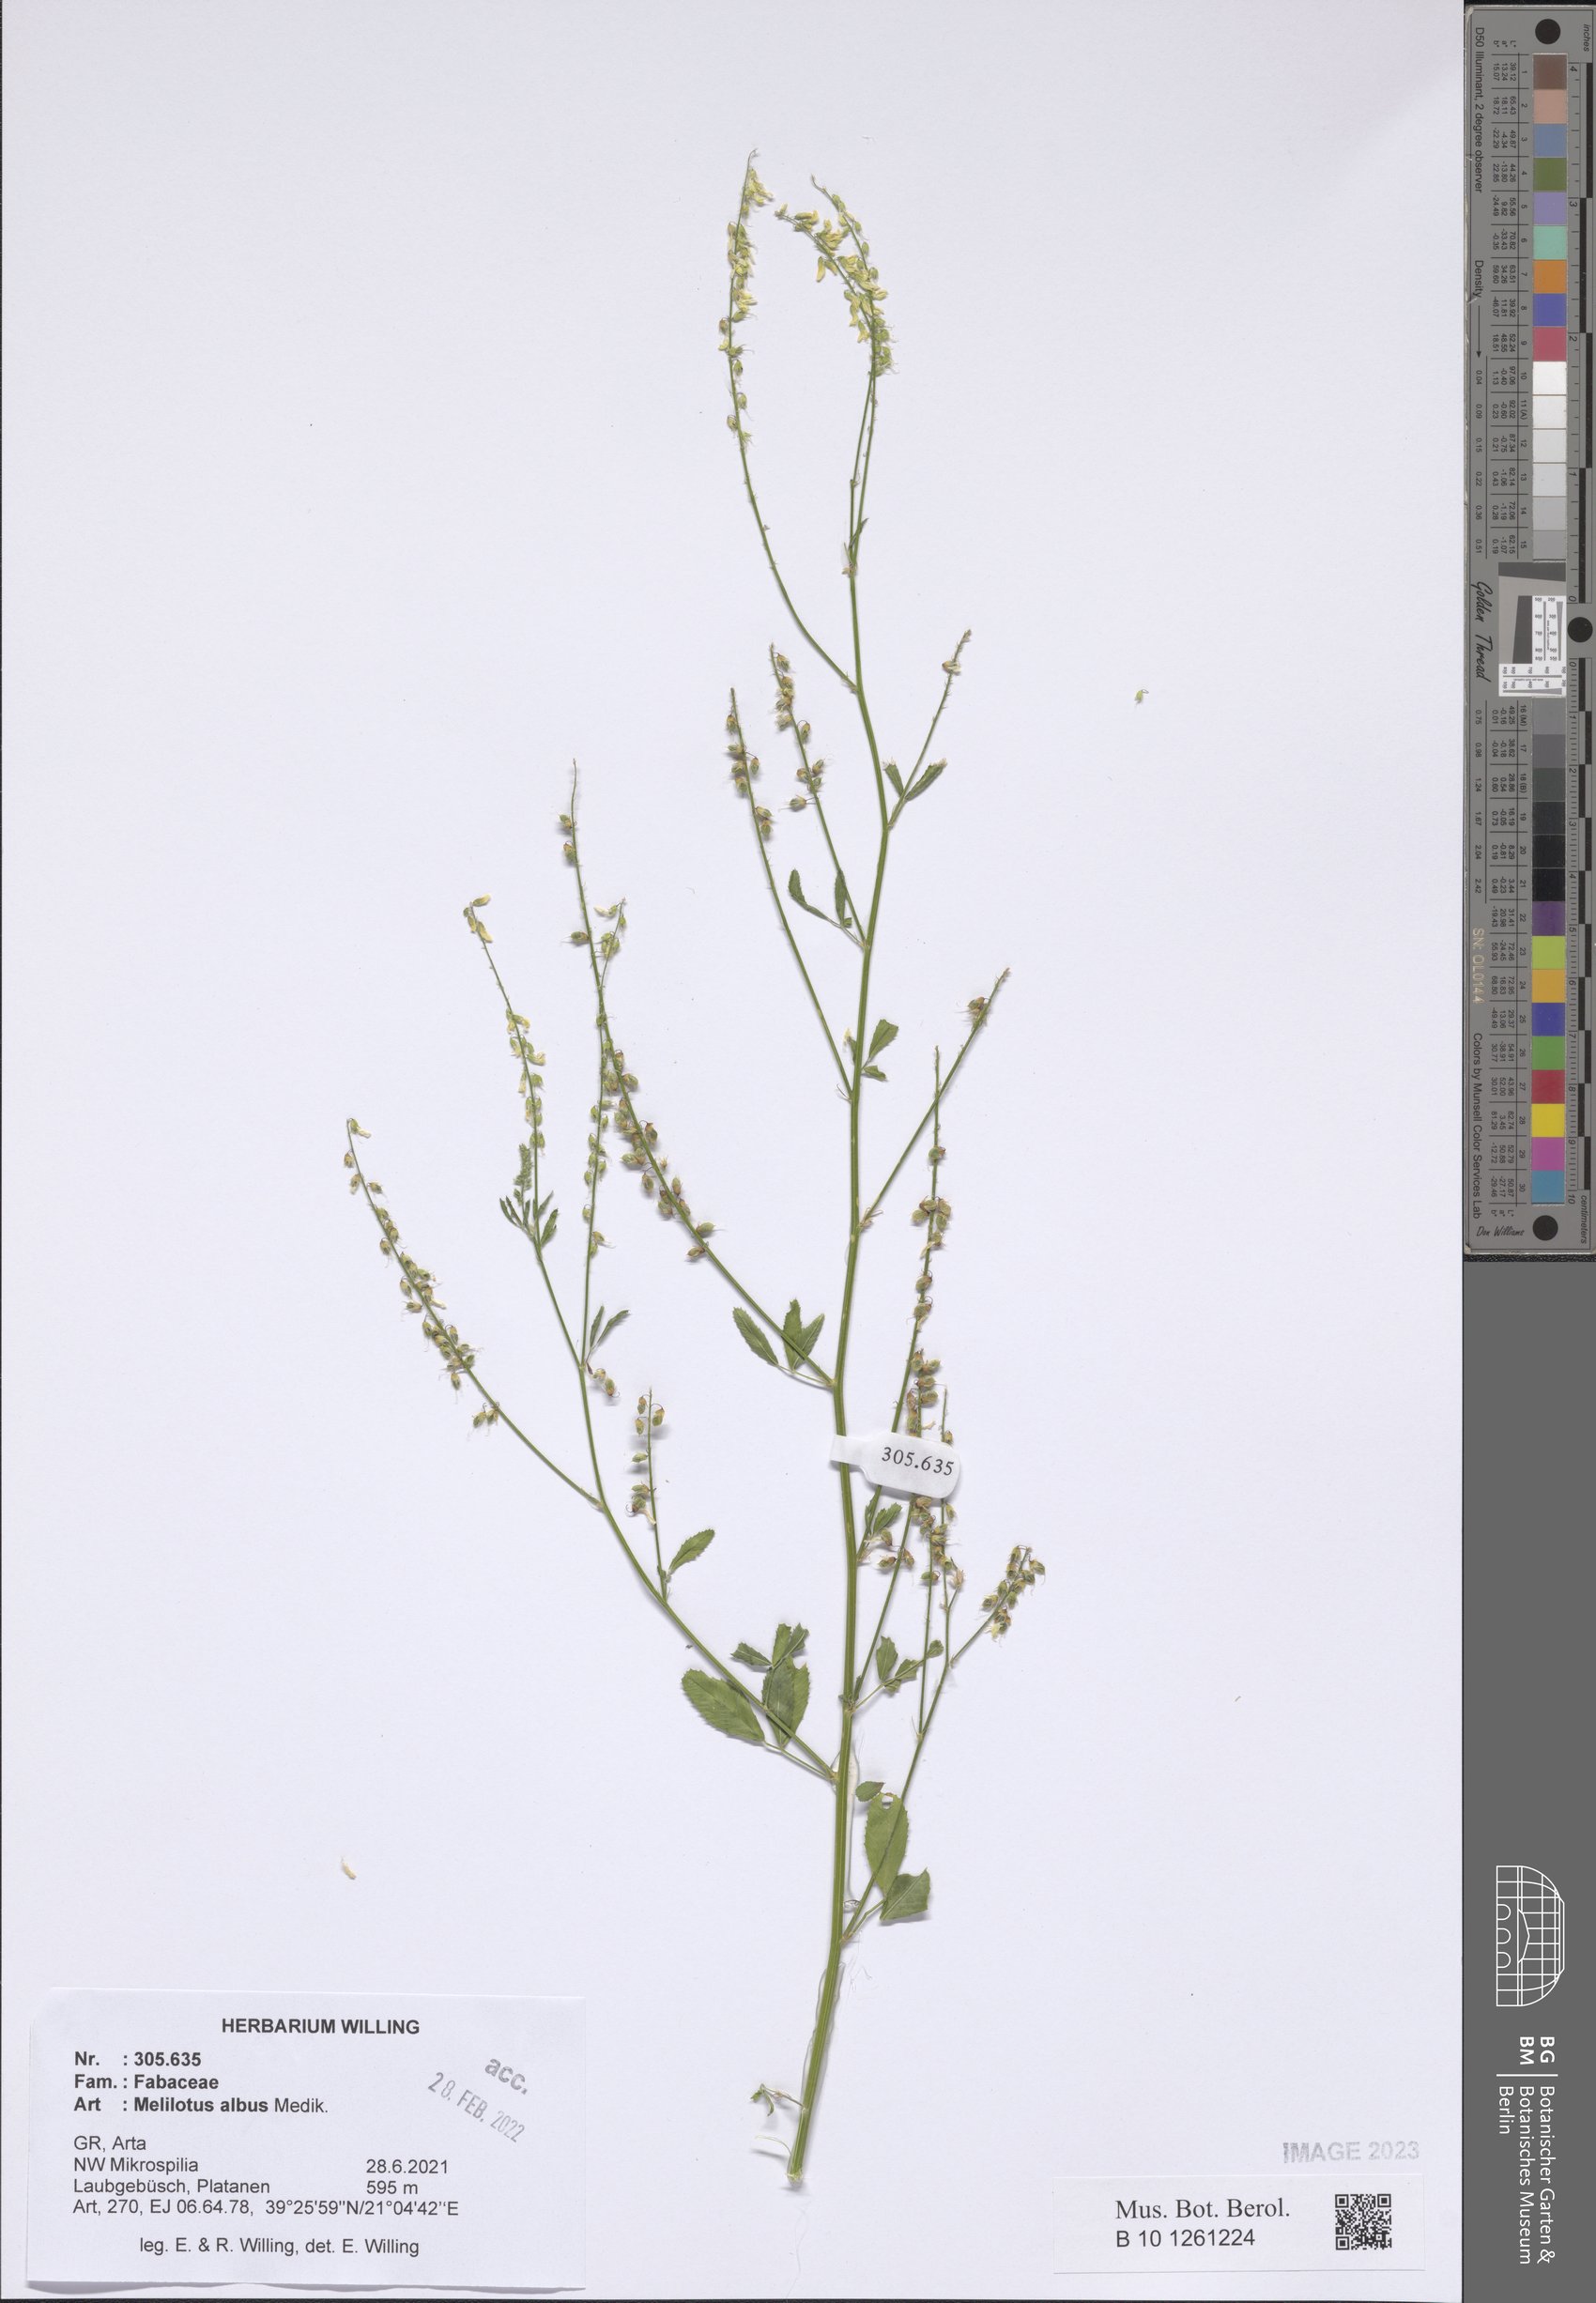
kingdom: Plantae
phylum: Tracheophyta
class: Magnoliopsida
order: Fabales
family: Fabaceae
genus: Melilotus
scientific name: Melilotus albus
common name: White melilot
